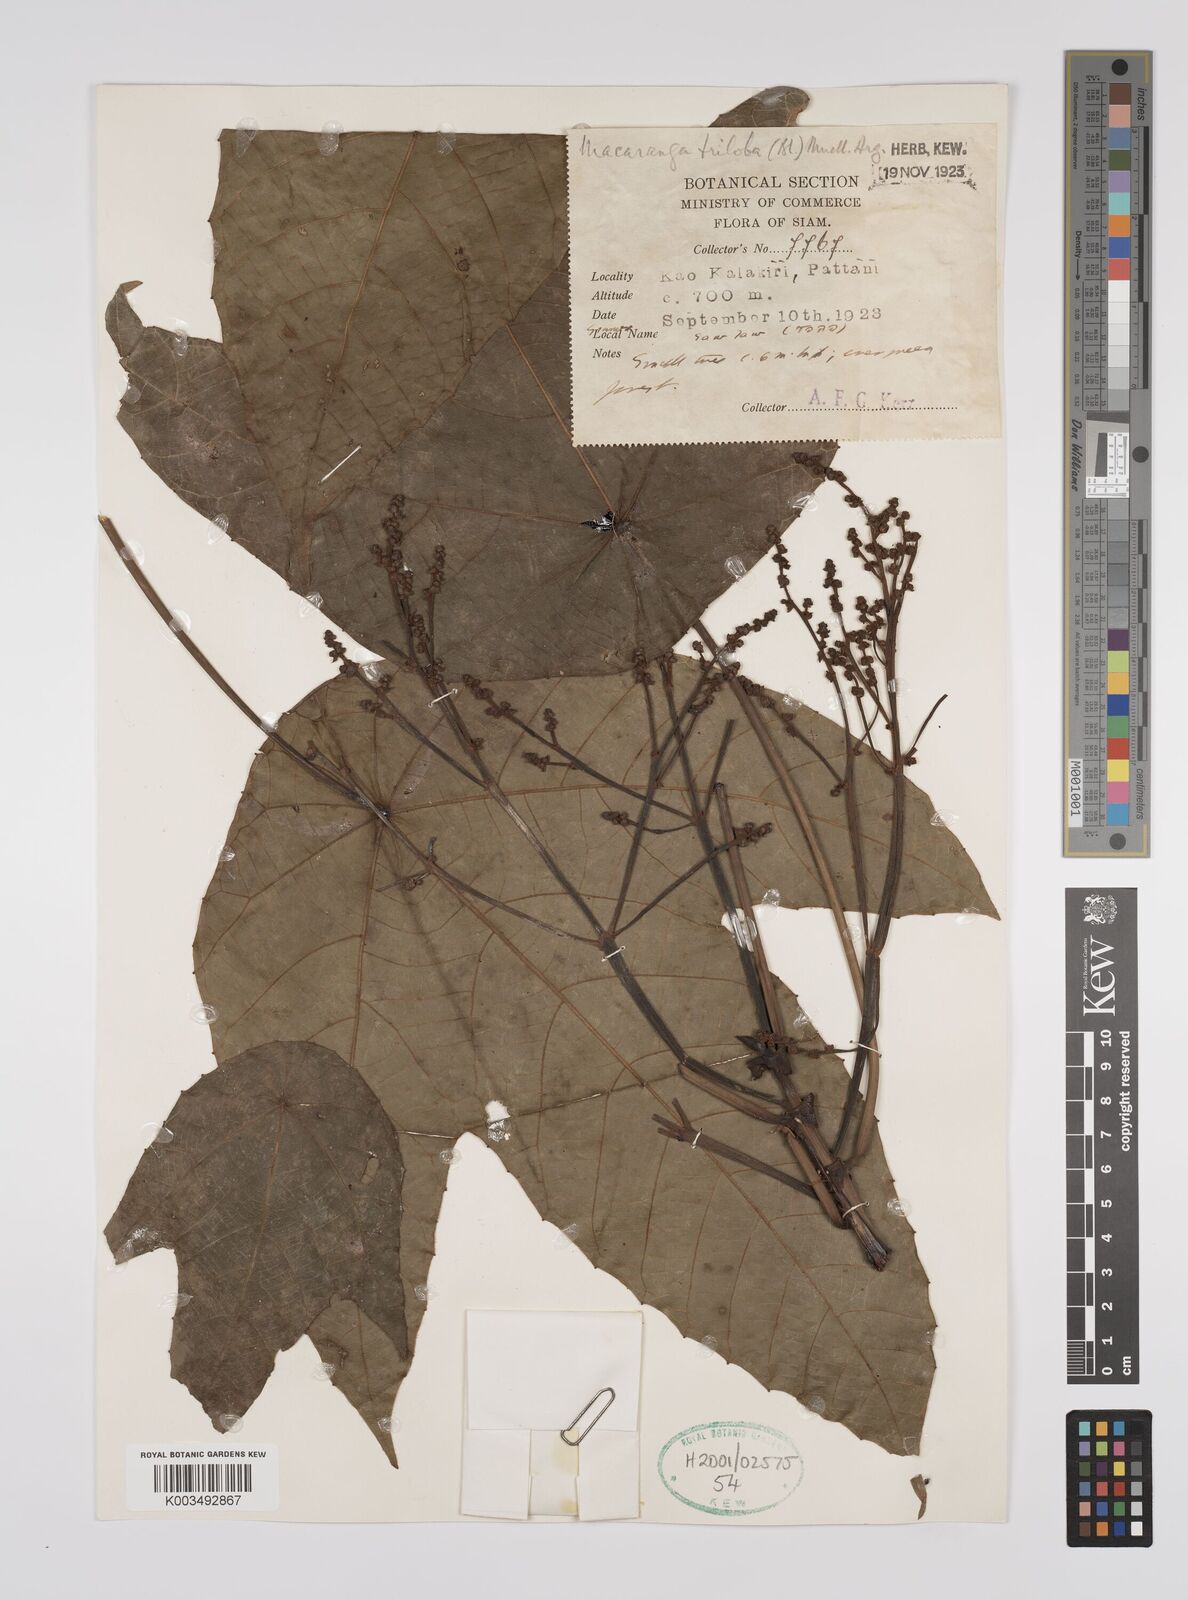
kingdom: Plantae
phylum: Tracheophyta
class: Magnoliopsida
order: Malpighiales
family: Euphorbiaceae
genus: Macaranga
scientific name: Macaranga triloba
